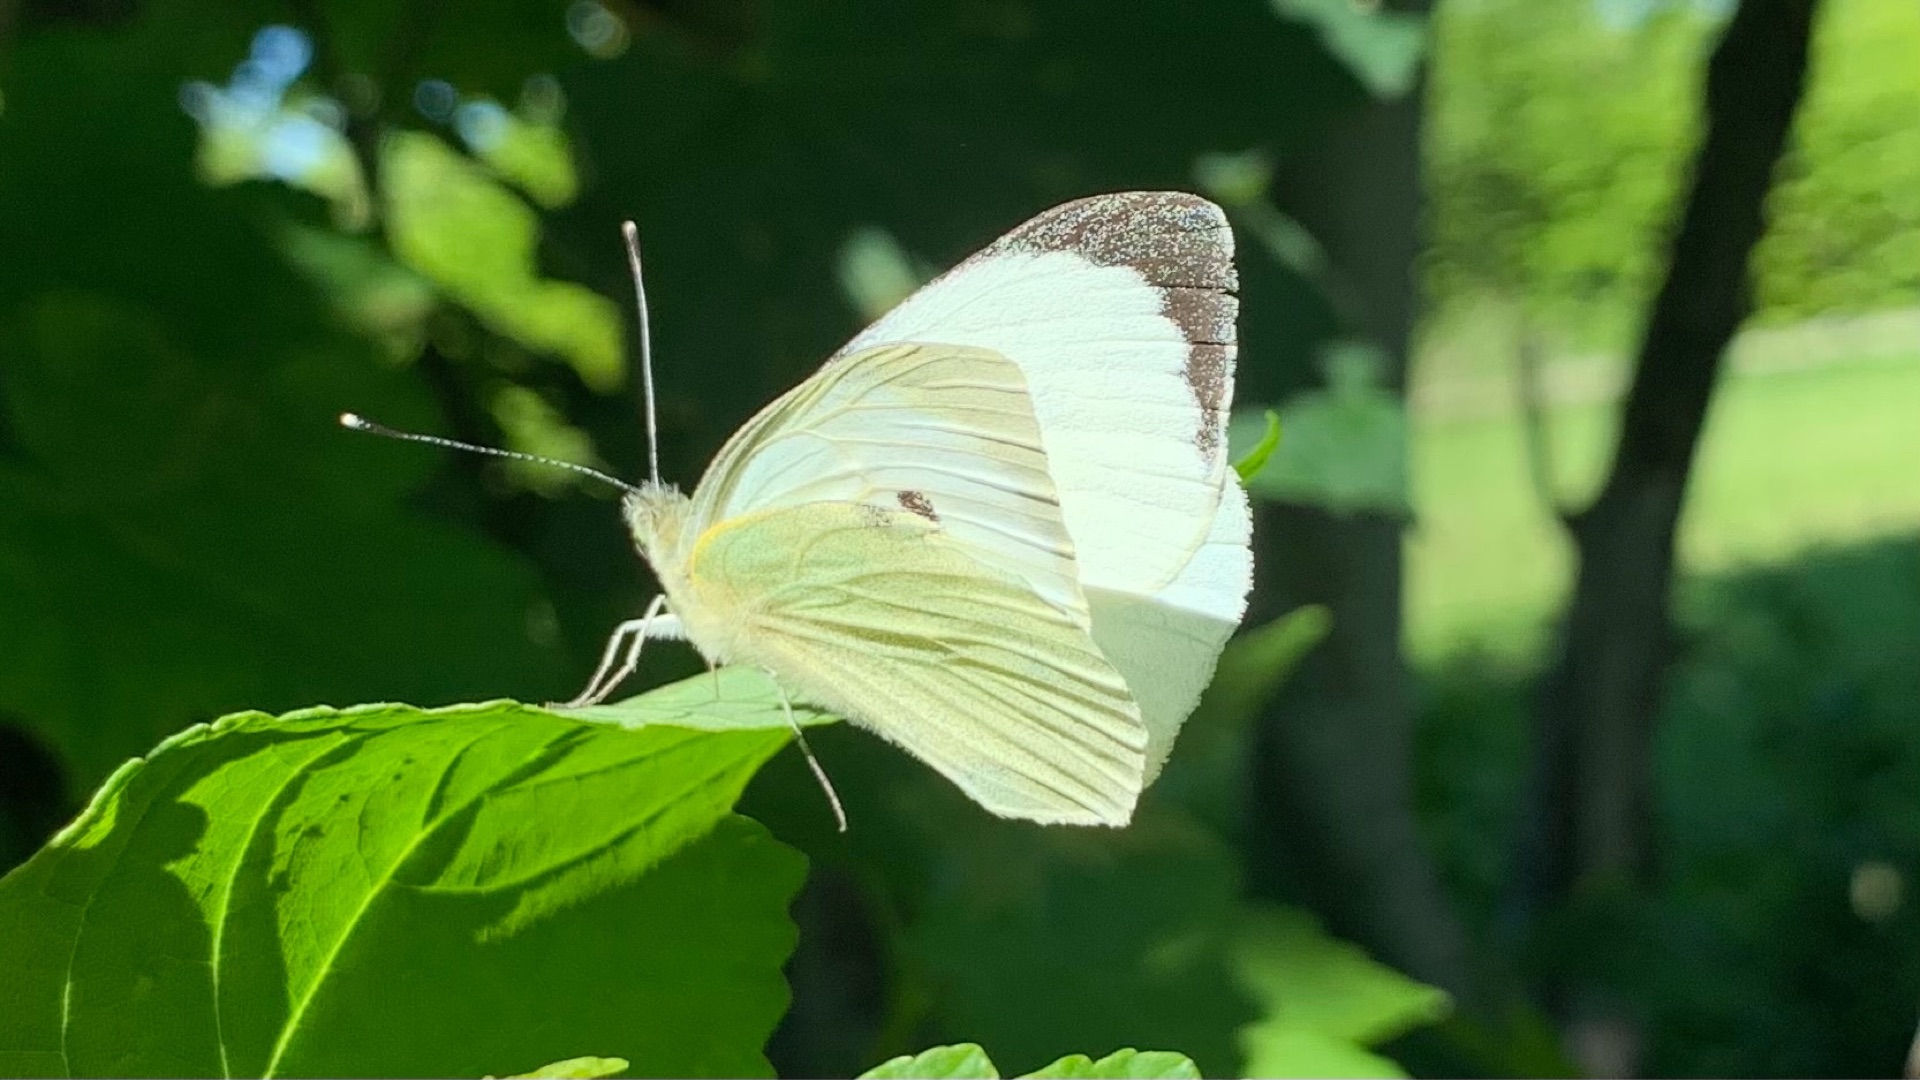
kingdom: Animalia
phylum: Arthropoda
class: Insecta
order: Lepidoptera
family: Pieridae
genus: Pieris
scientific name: Pieris brassicae
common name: Stor kålsommerfugl
